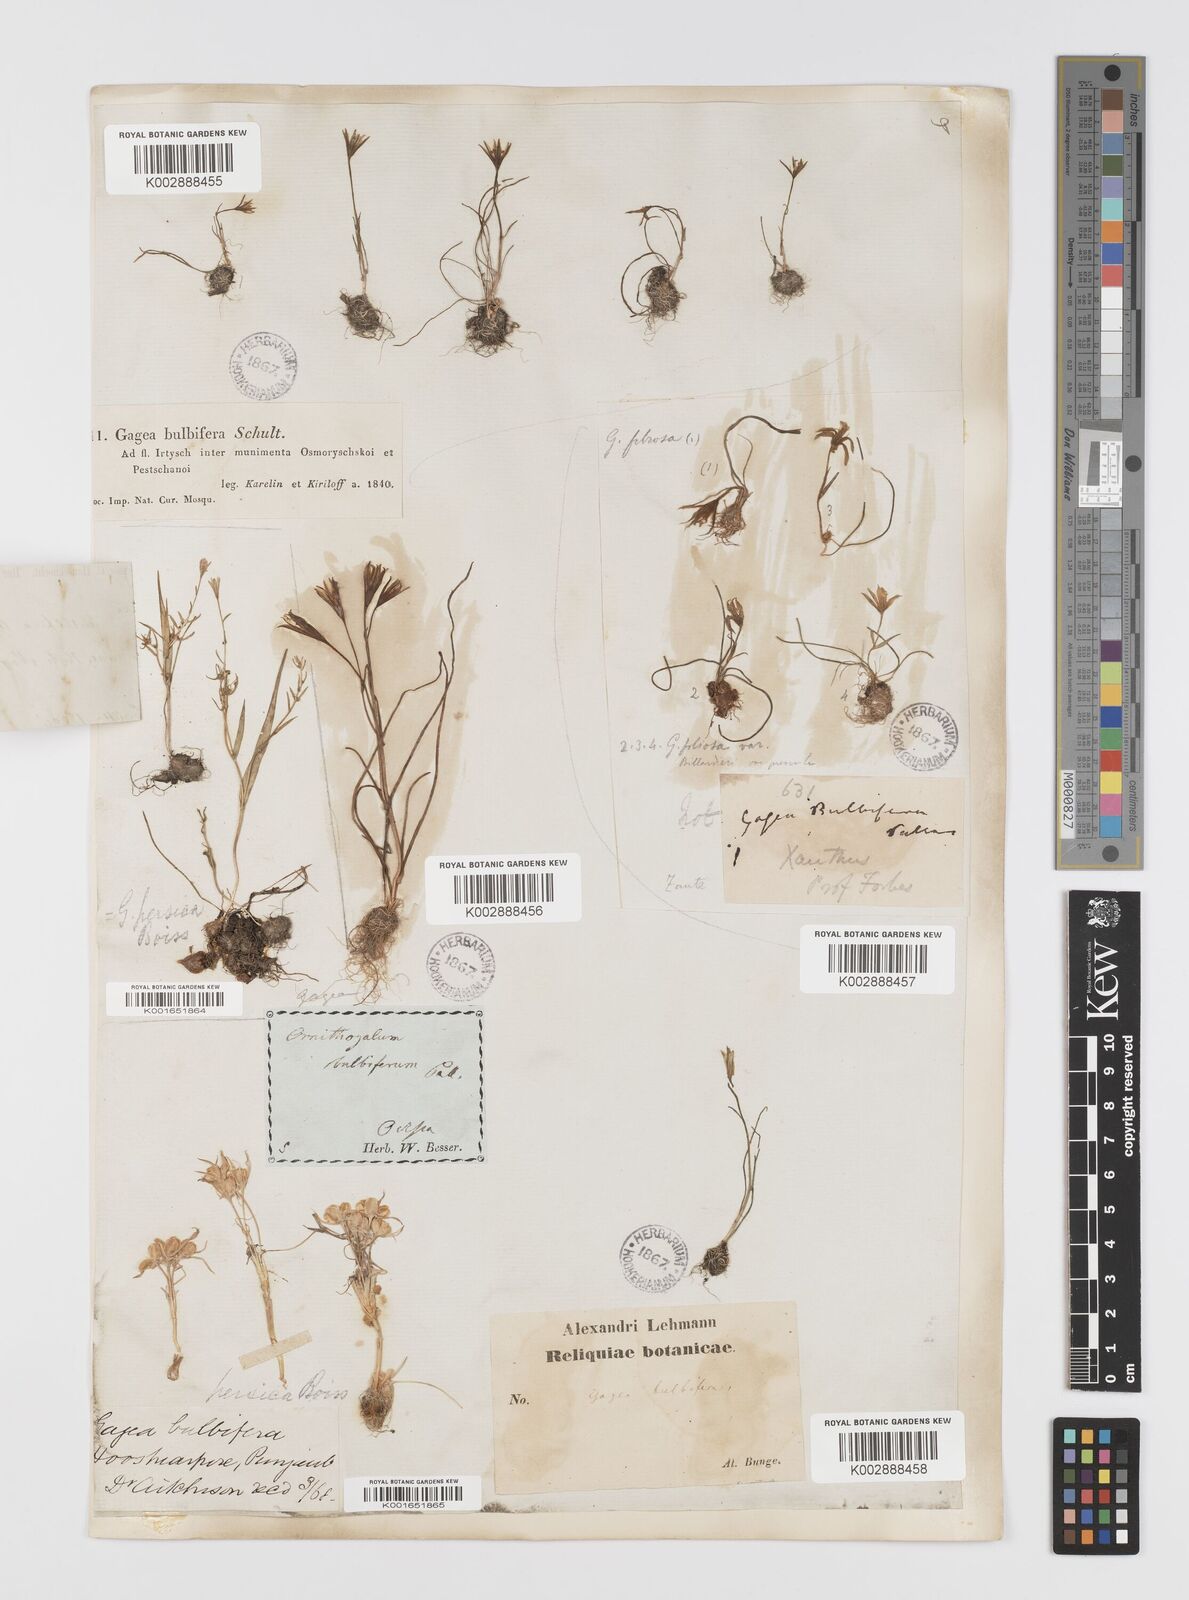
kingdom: Plantae
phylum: Tracheophyta
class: Liliopsida
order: Liliales
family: Liliaceae
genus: Gagea
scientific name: Gagea bulbifera
